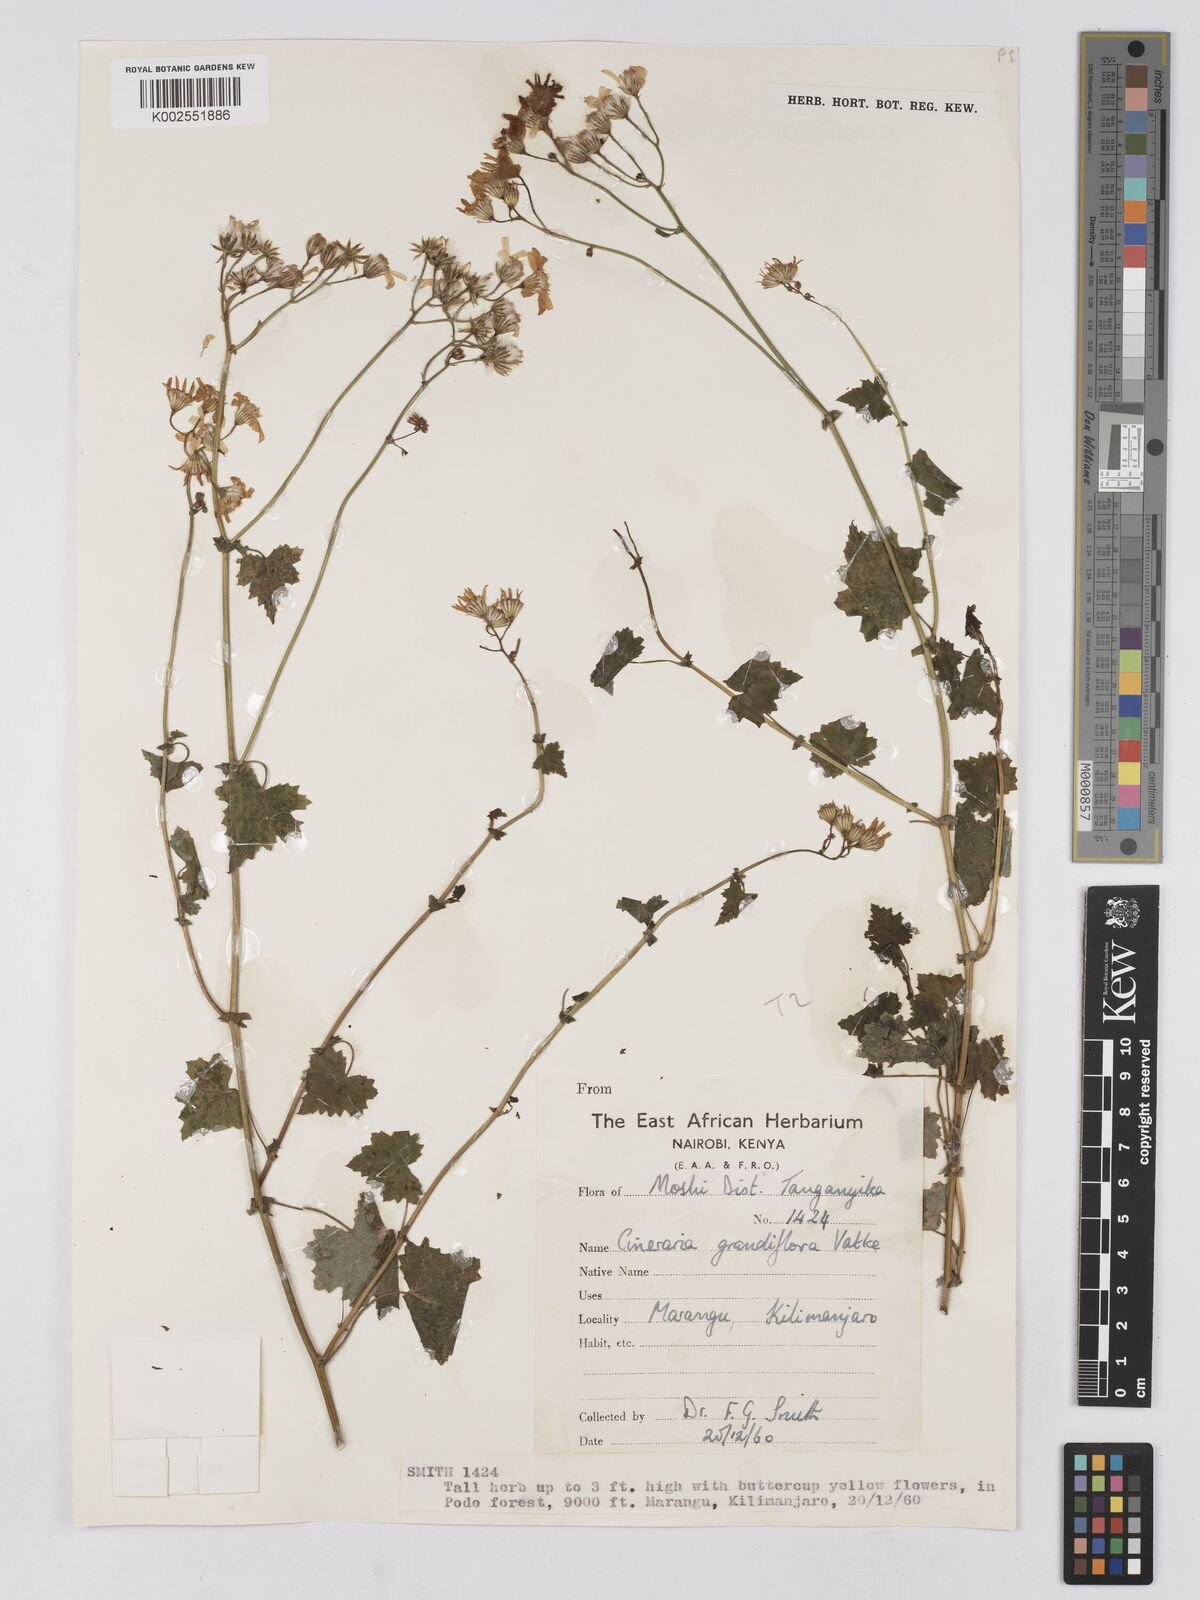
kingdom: Plantae
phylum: Tracheophyta
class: Magnoliopsida
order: Asterales
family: Asteraceae
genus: Cineraria
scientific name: Cineraria deltoidea
